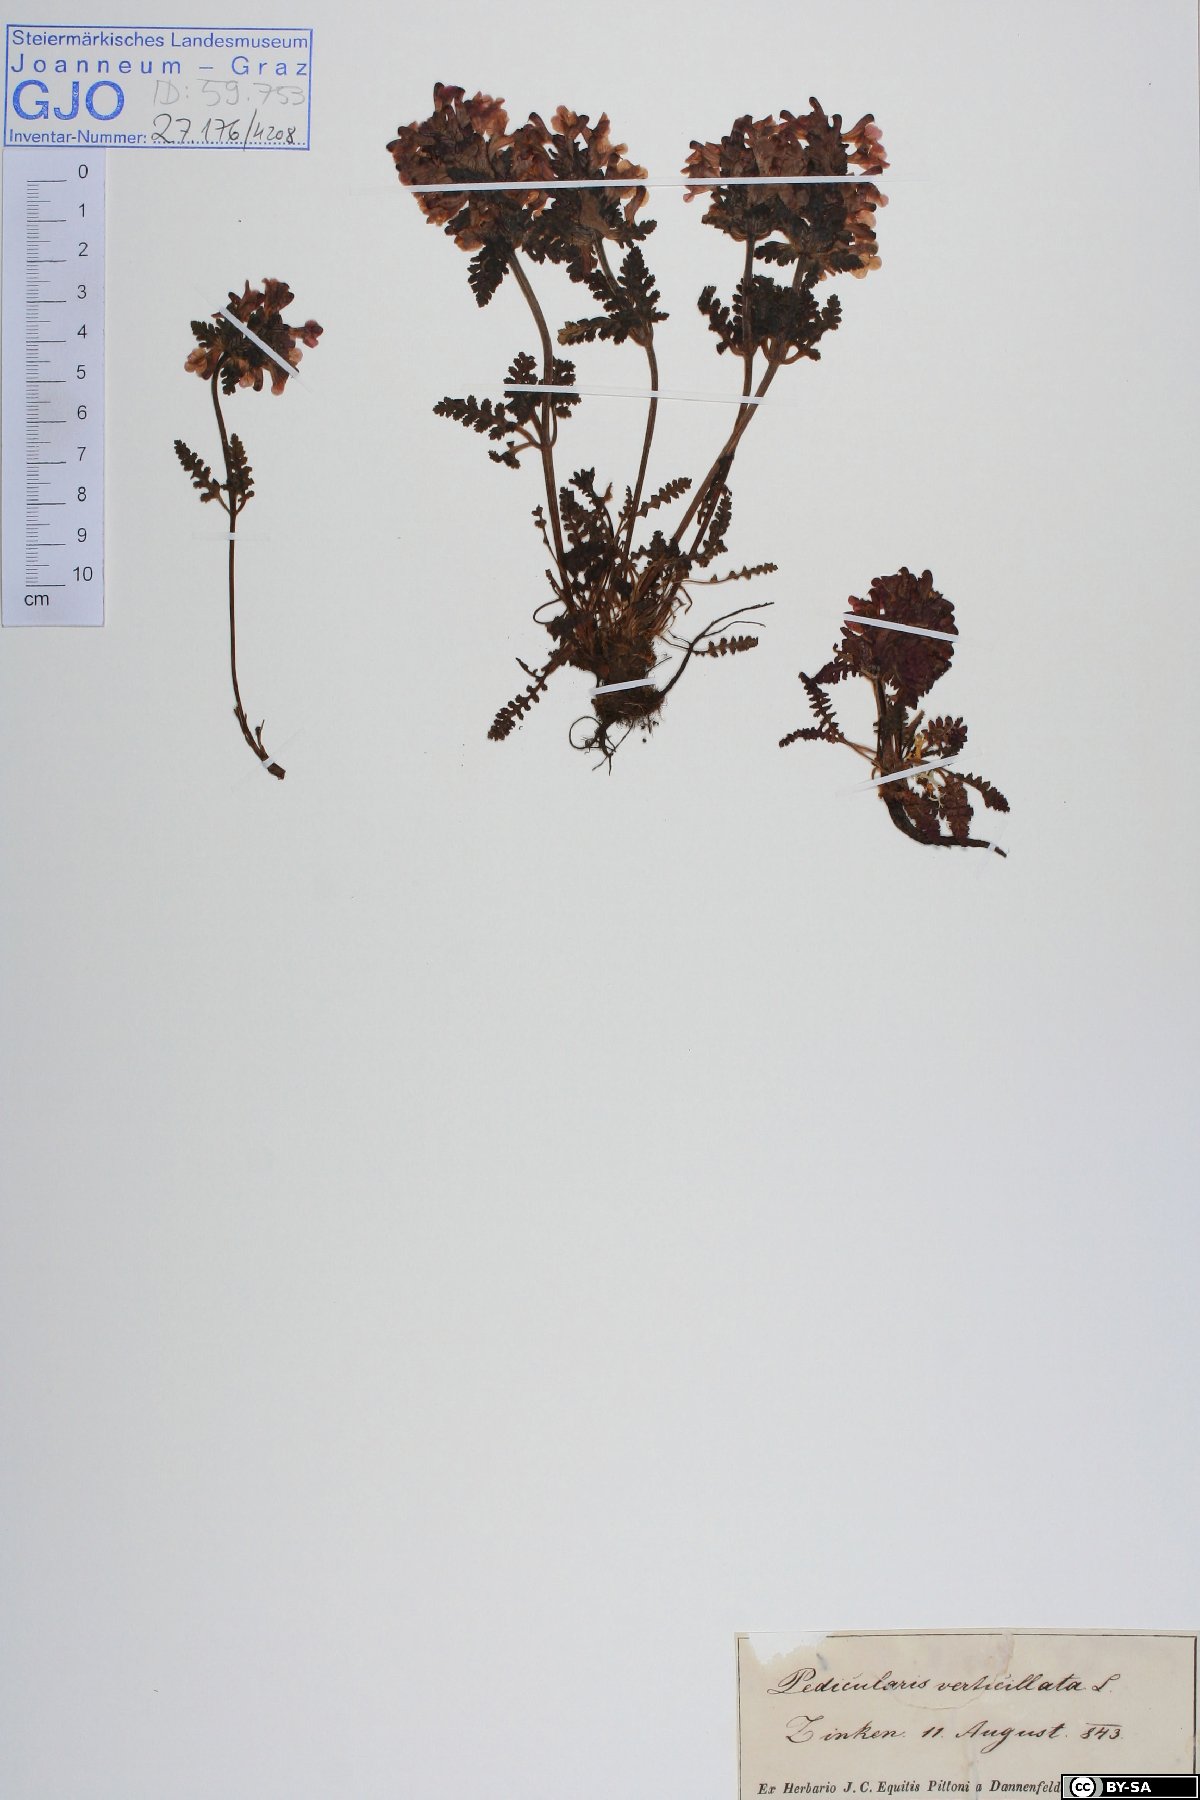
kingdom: Plantae
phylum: Tracheophyta
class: Magnoliopsida
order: Lamiales
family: Orobanchaceae
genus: Pedicularis
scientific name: Pedicularis verticillata
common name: Whorled lousewort
